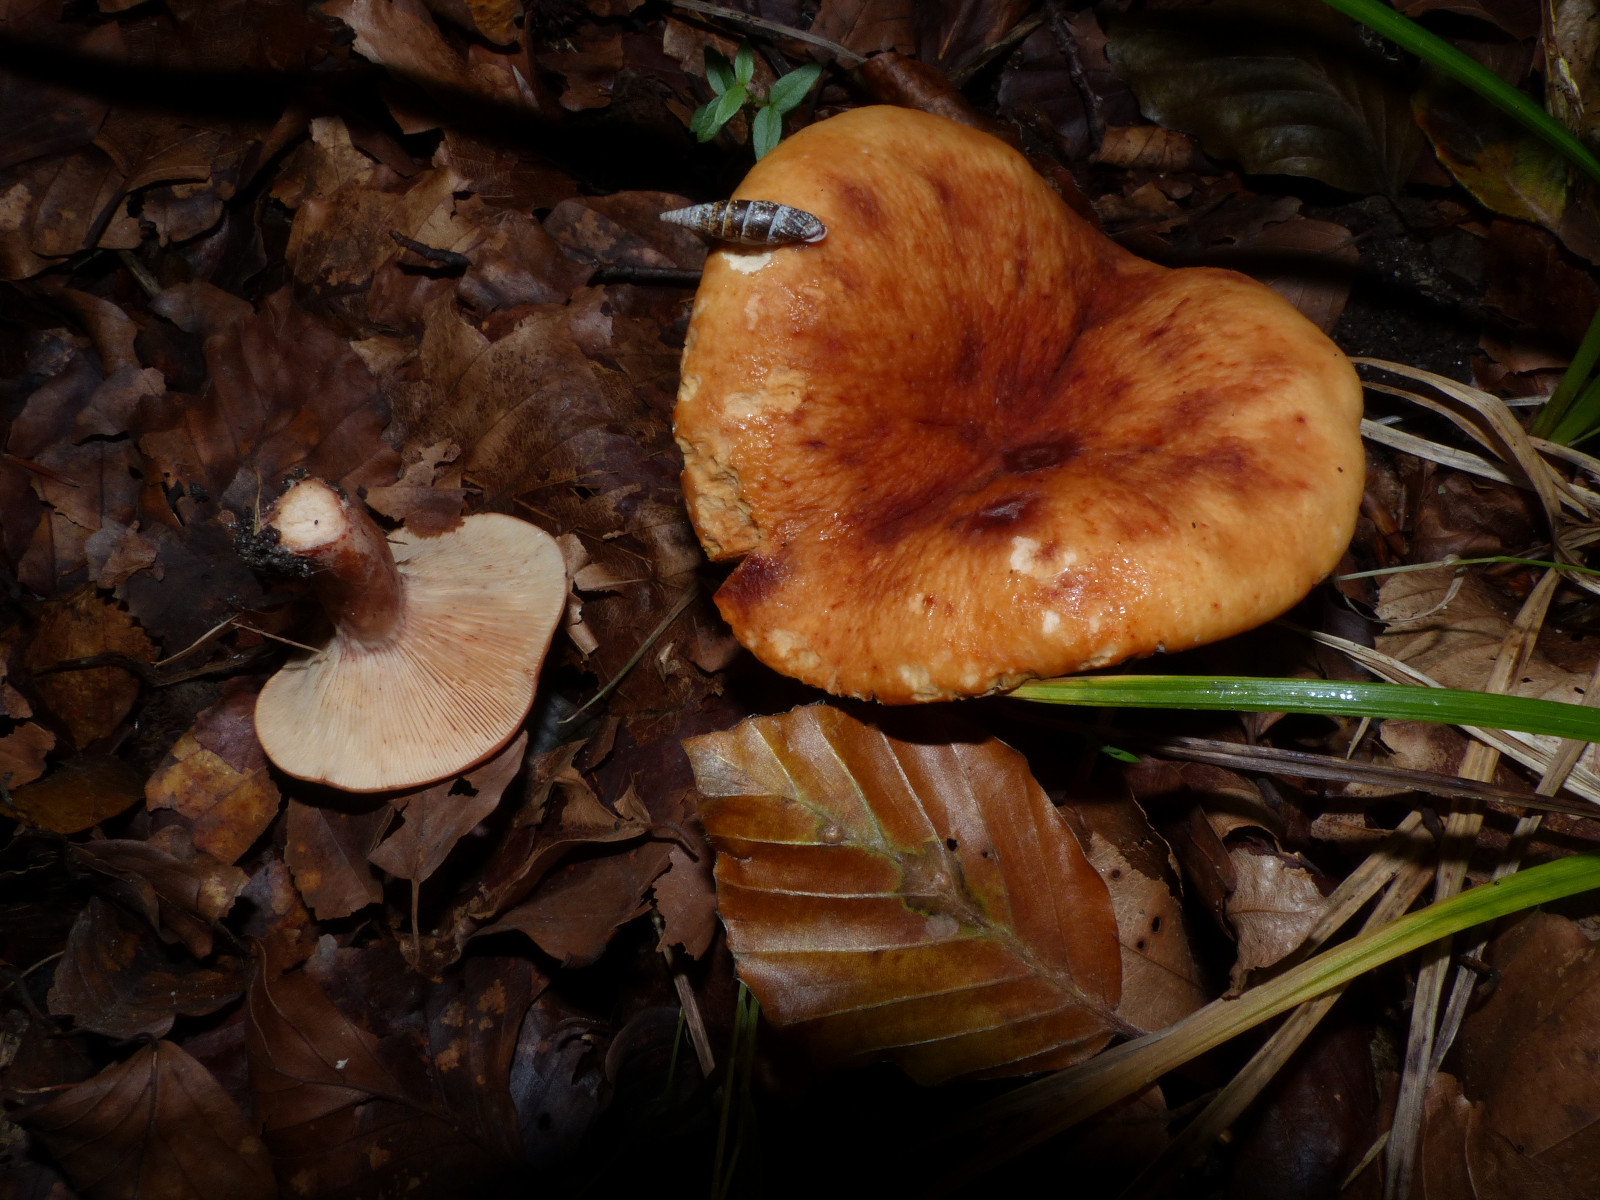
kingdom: Fungi
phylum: Basidiomycota
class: Agaricomycetes
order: Russulales
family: Russulaceae
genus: Lactarius
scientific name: Lactarius rubrocinctus
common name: halsbånd-mælkehat
